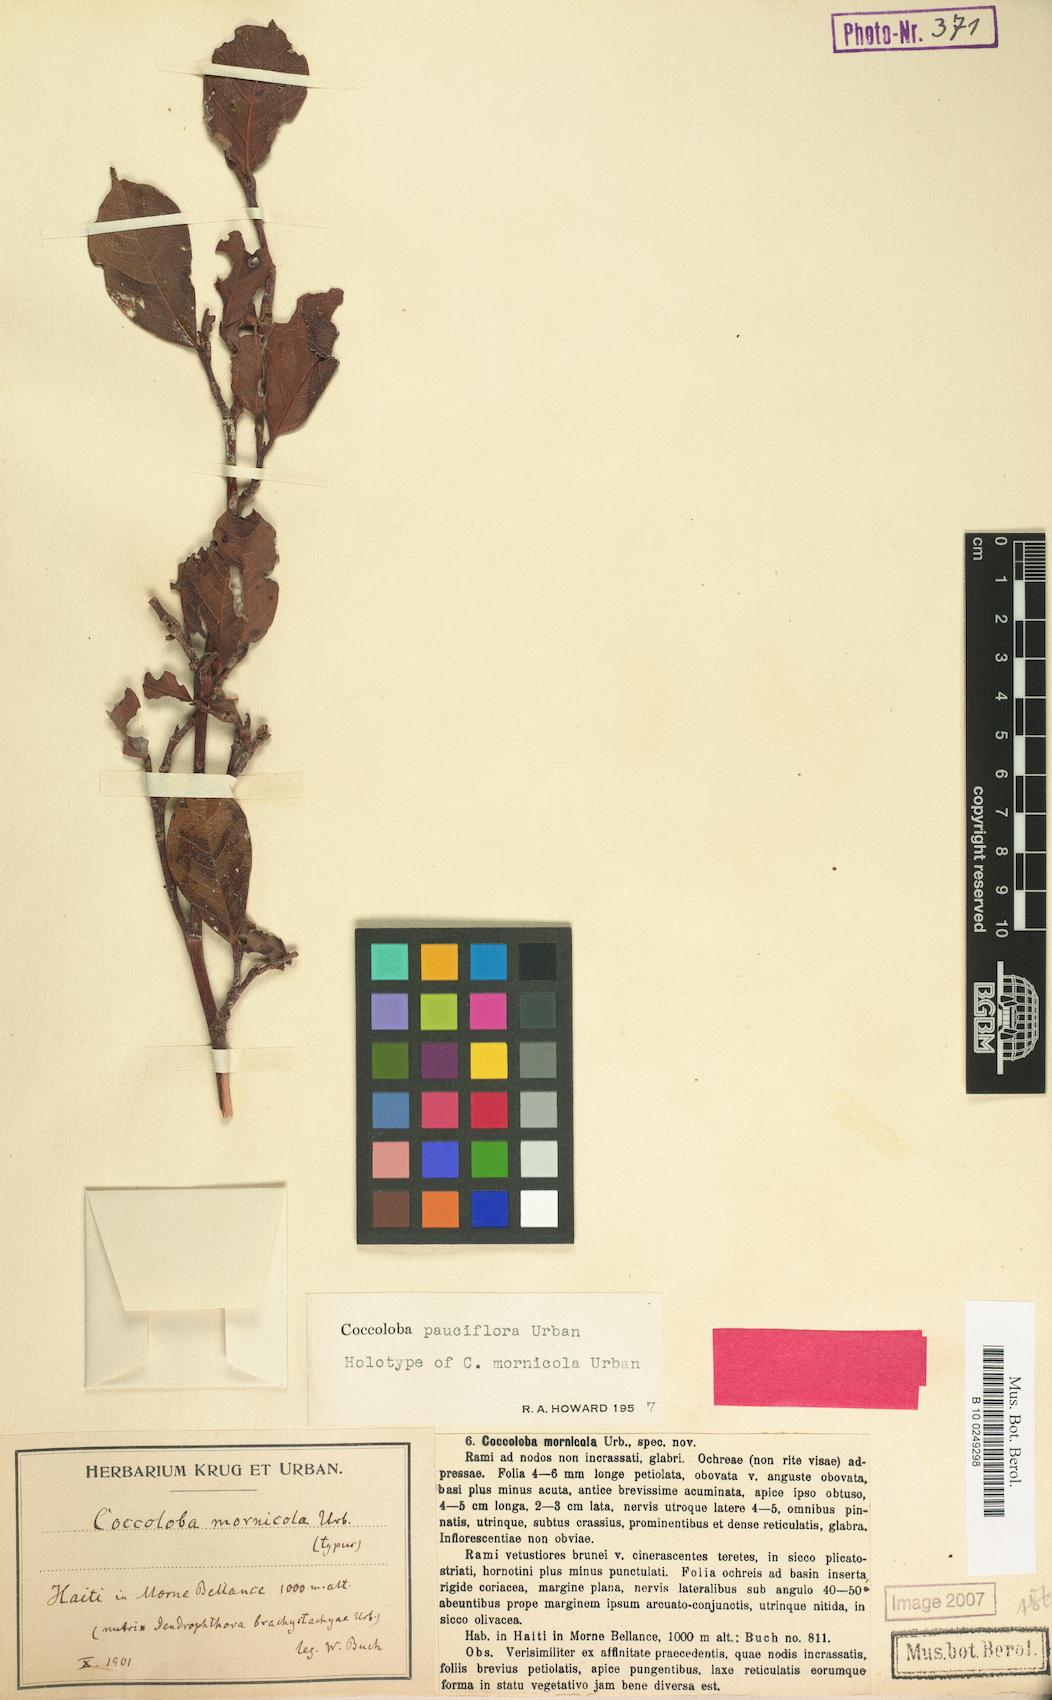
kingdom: Plantae
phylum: Tracheophyta
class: Magnoliopsida
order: Caryophyllales
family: Polygonaceae
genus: Coccoloba
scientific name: Coccoloba pauciflora
